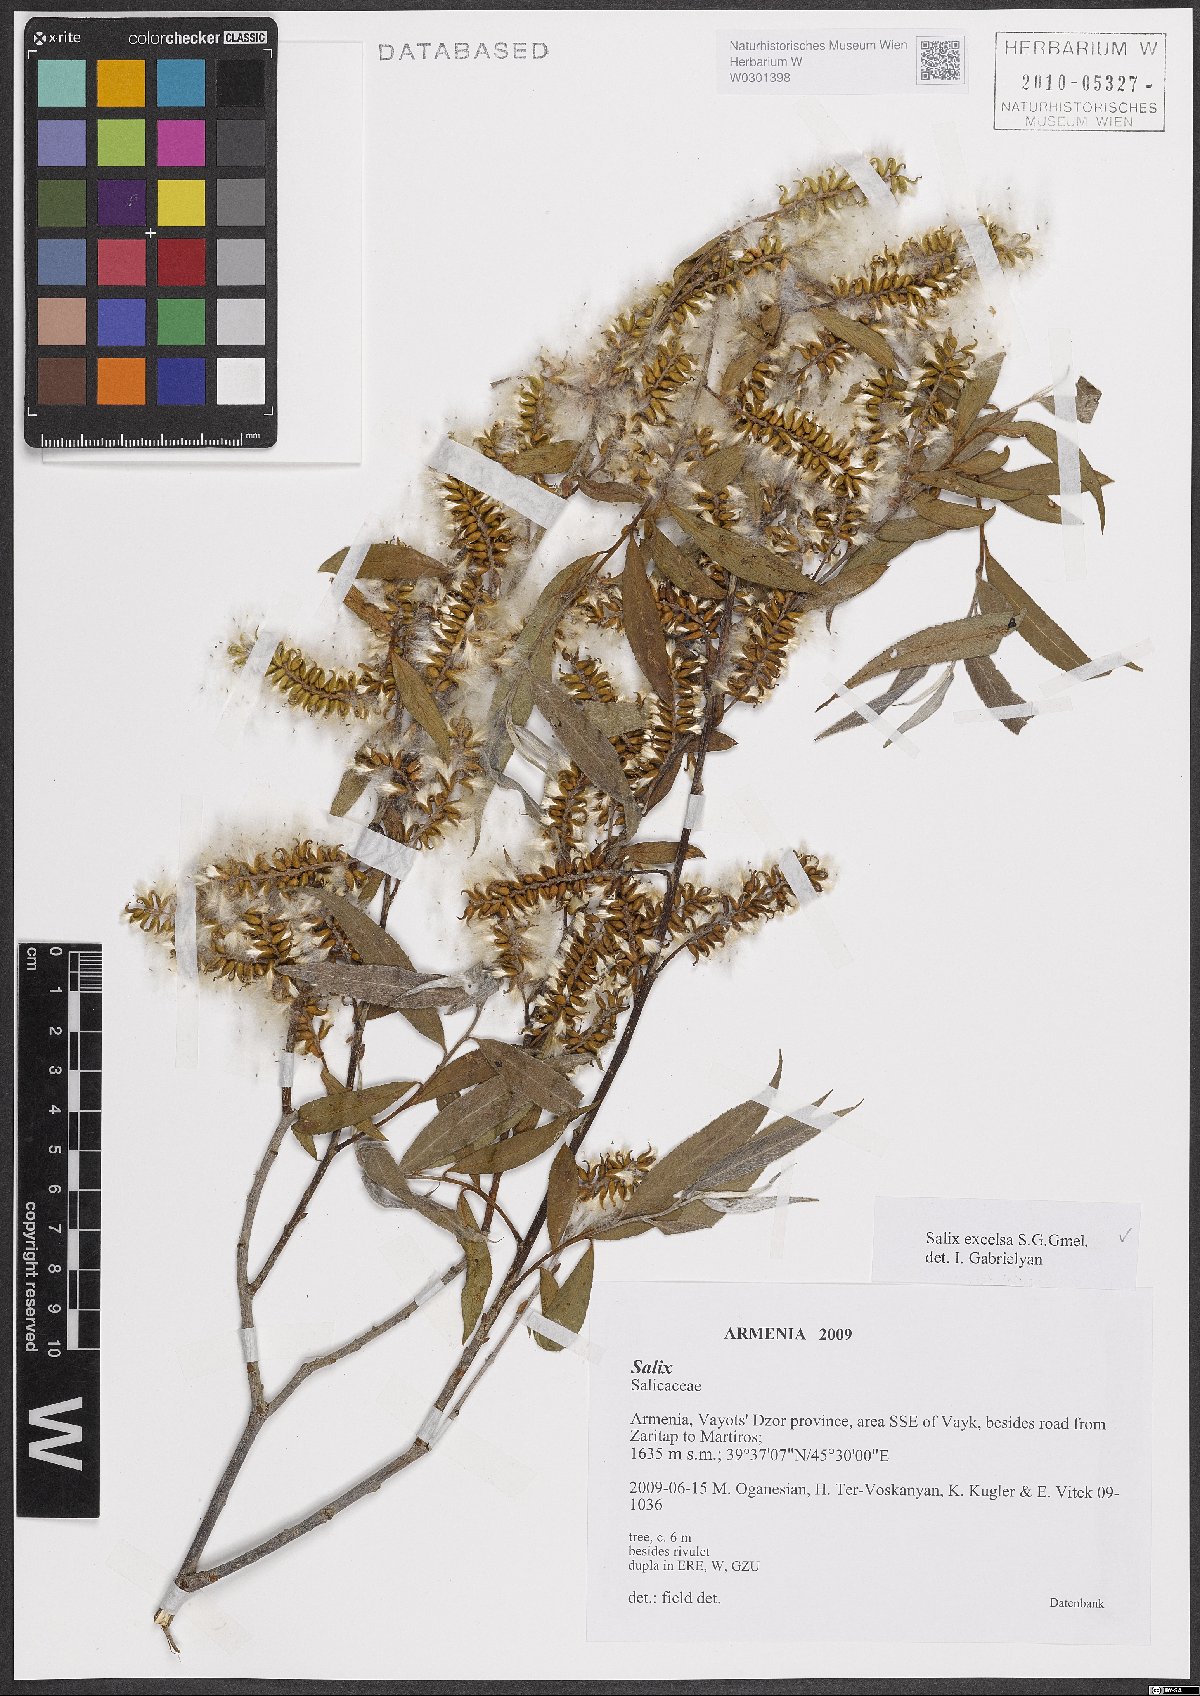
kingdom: Plantae
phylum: Tracheophyta
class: Magnoliopsida
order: Malpighiales
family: Salicaceae
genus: Salix
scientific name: Salix excelsa
